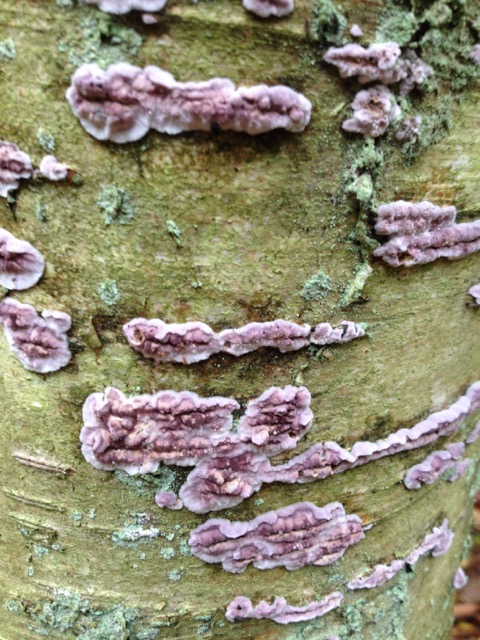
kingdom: Fungi
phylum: Basidiomycota
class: Agaricomycetes
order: Agaricales
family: Cyphellaceae
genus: Chondrostereum
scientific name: Chondrostereum purpureum
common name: purpurlædersvamp
